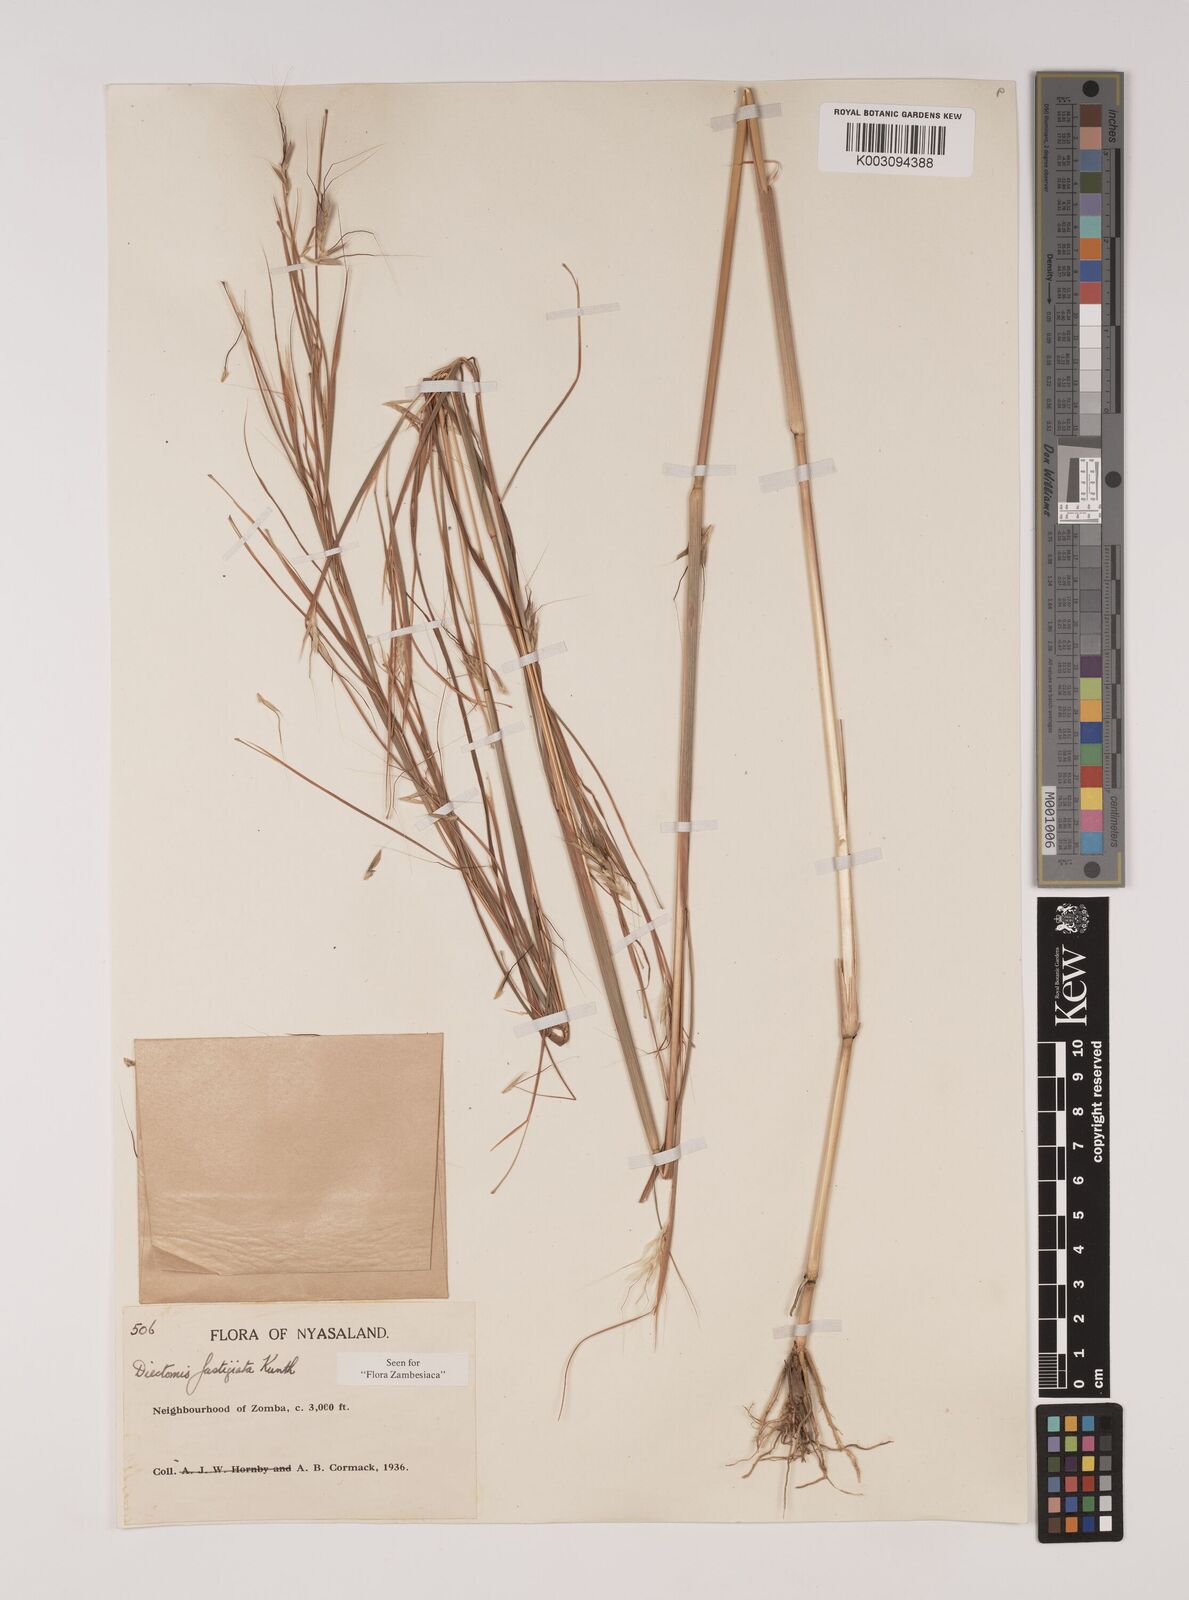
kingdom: Plantae
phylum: Tracheophyta
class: Liliopsida
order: Poales
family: Poaceae
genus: Andropogon
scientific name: Andropogon festuciformis
